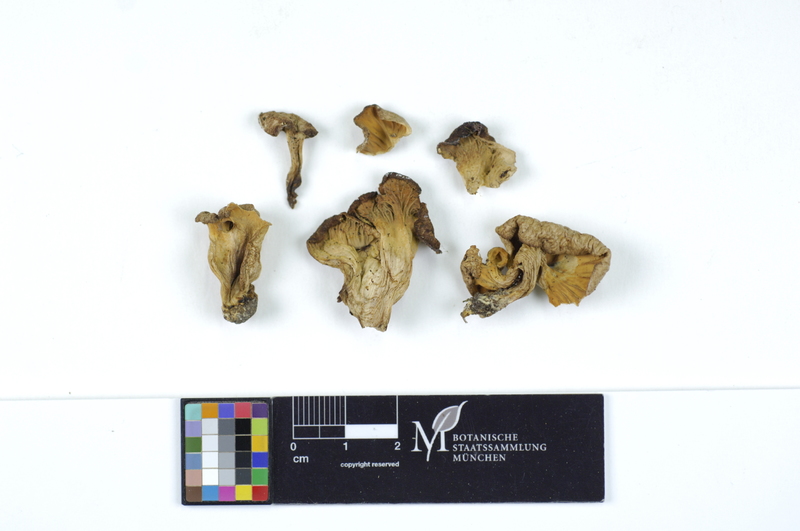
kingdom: Fungi
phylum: Basidiomycota
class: Agaricomycetes
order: Cantharellales
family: Hydnaceae
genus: Cantharellus
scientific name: Cantharellus melanoxeros
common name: Blackening chanterelle
